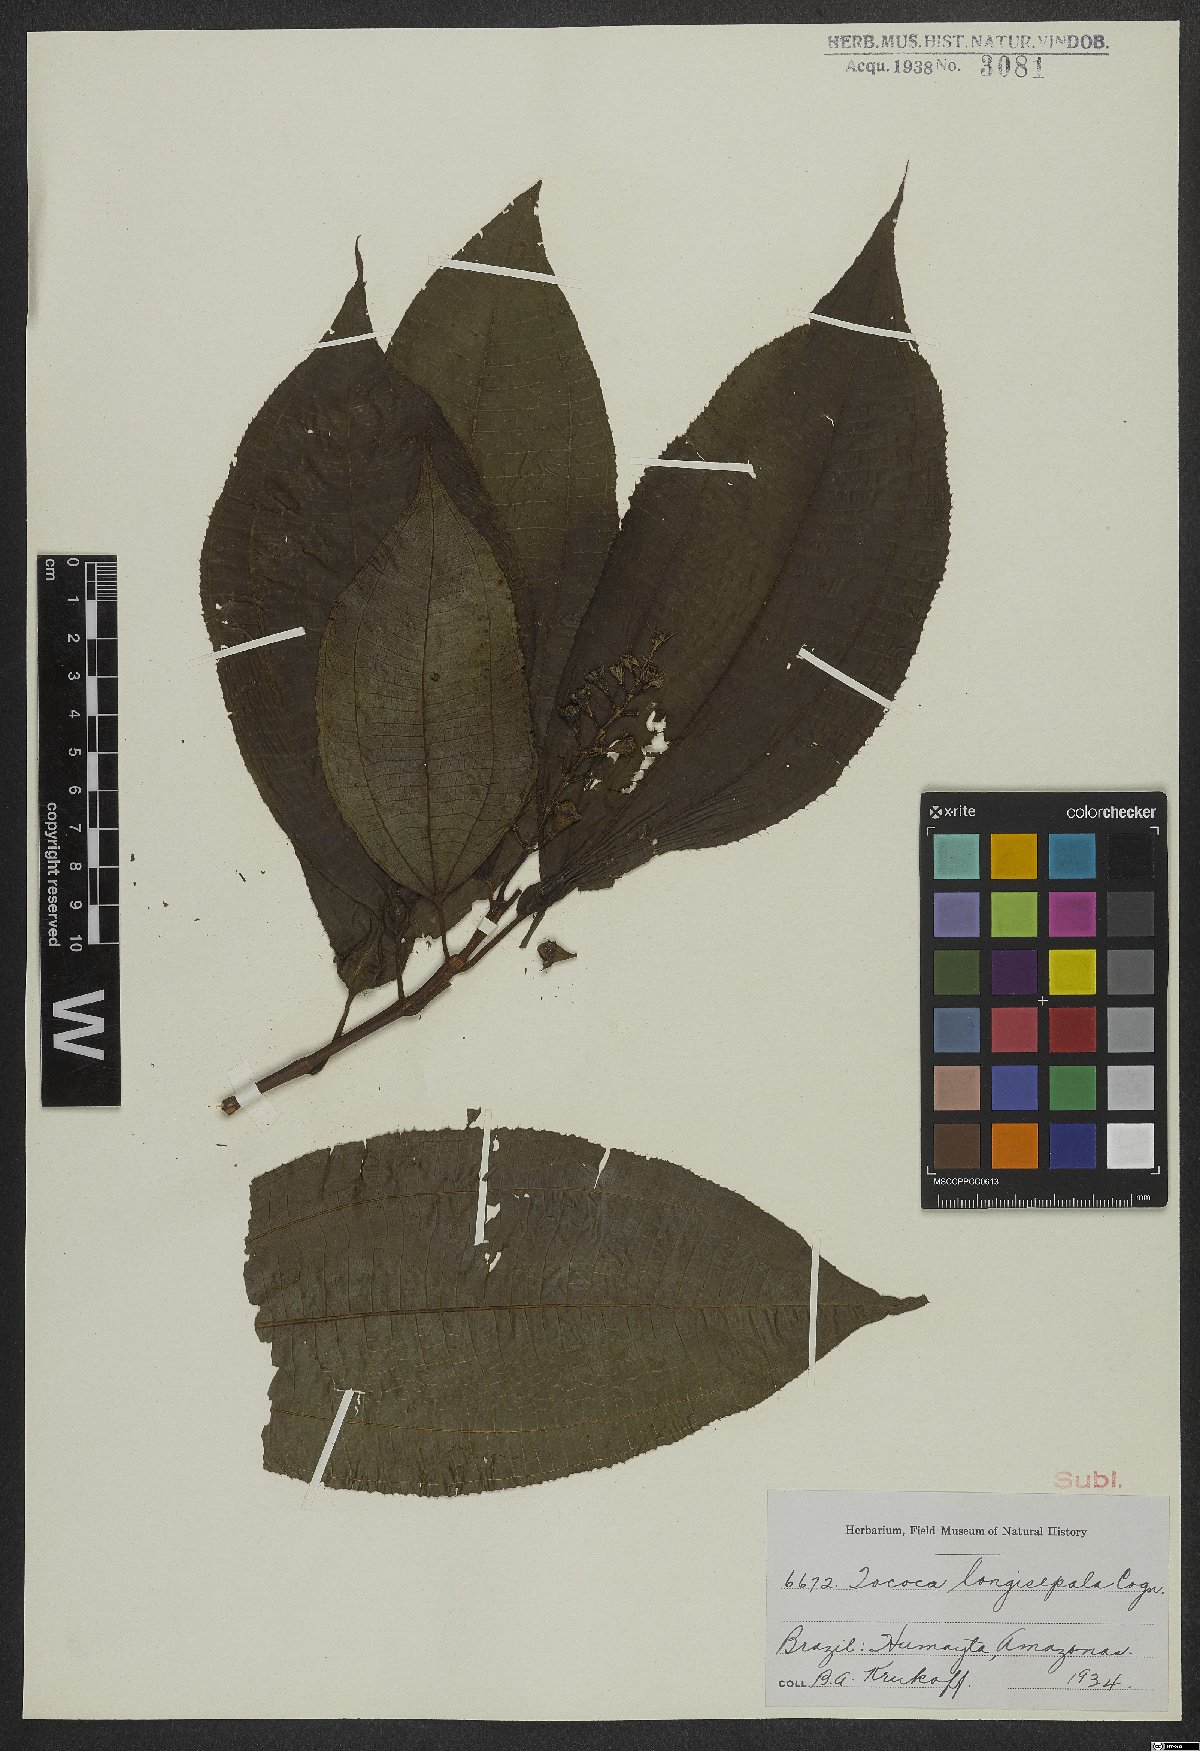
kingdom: Plantae
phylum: Tracheophyta
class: Magnoliopsida
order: Myrtales
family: Melastomataceae
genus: Miconia
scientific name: Miconia tococoronata
